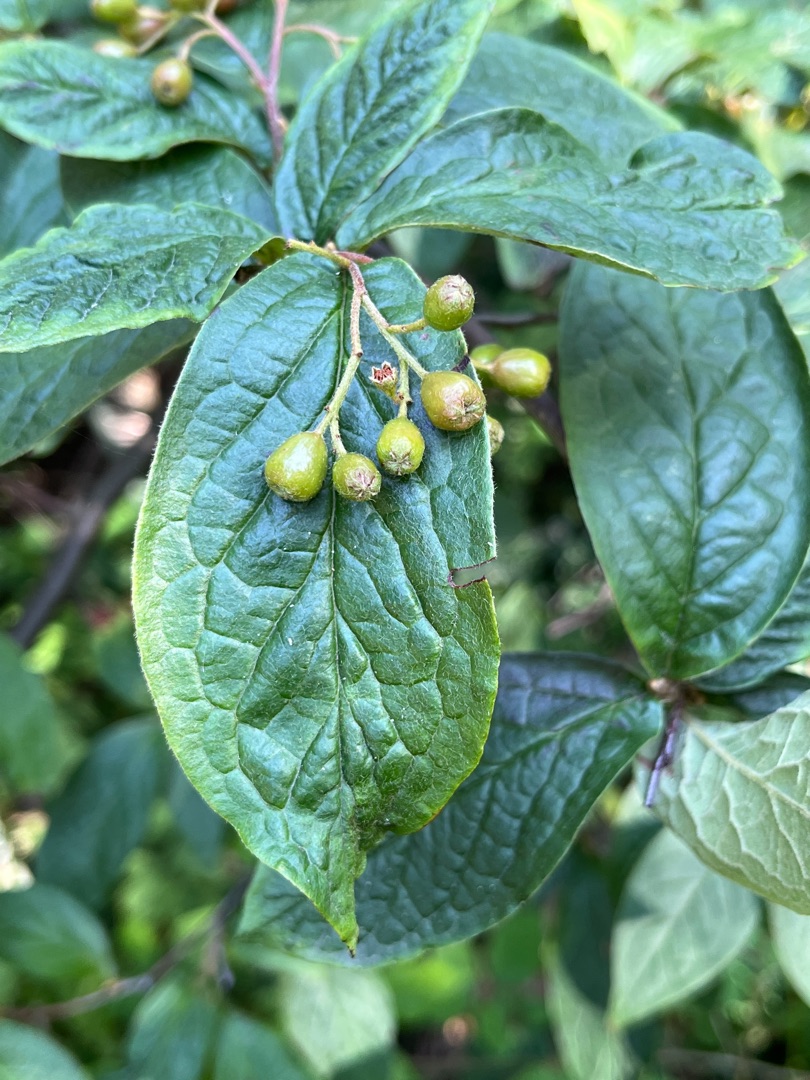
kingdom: Plantae
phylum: Tracheophyta
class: Magnoliopsida
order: Rosales
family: Rosaceae
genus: Cotoneaster
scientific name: Cotoneaster bullatus
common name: Buklet dværgmispel
